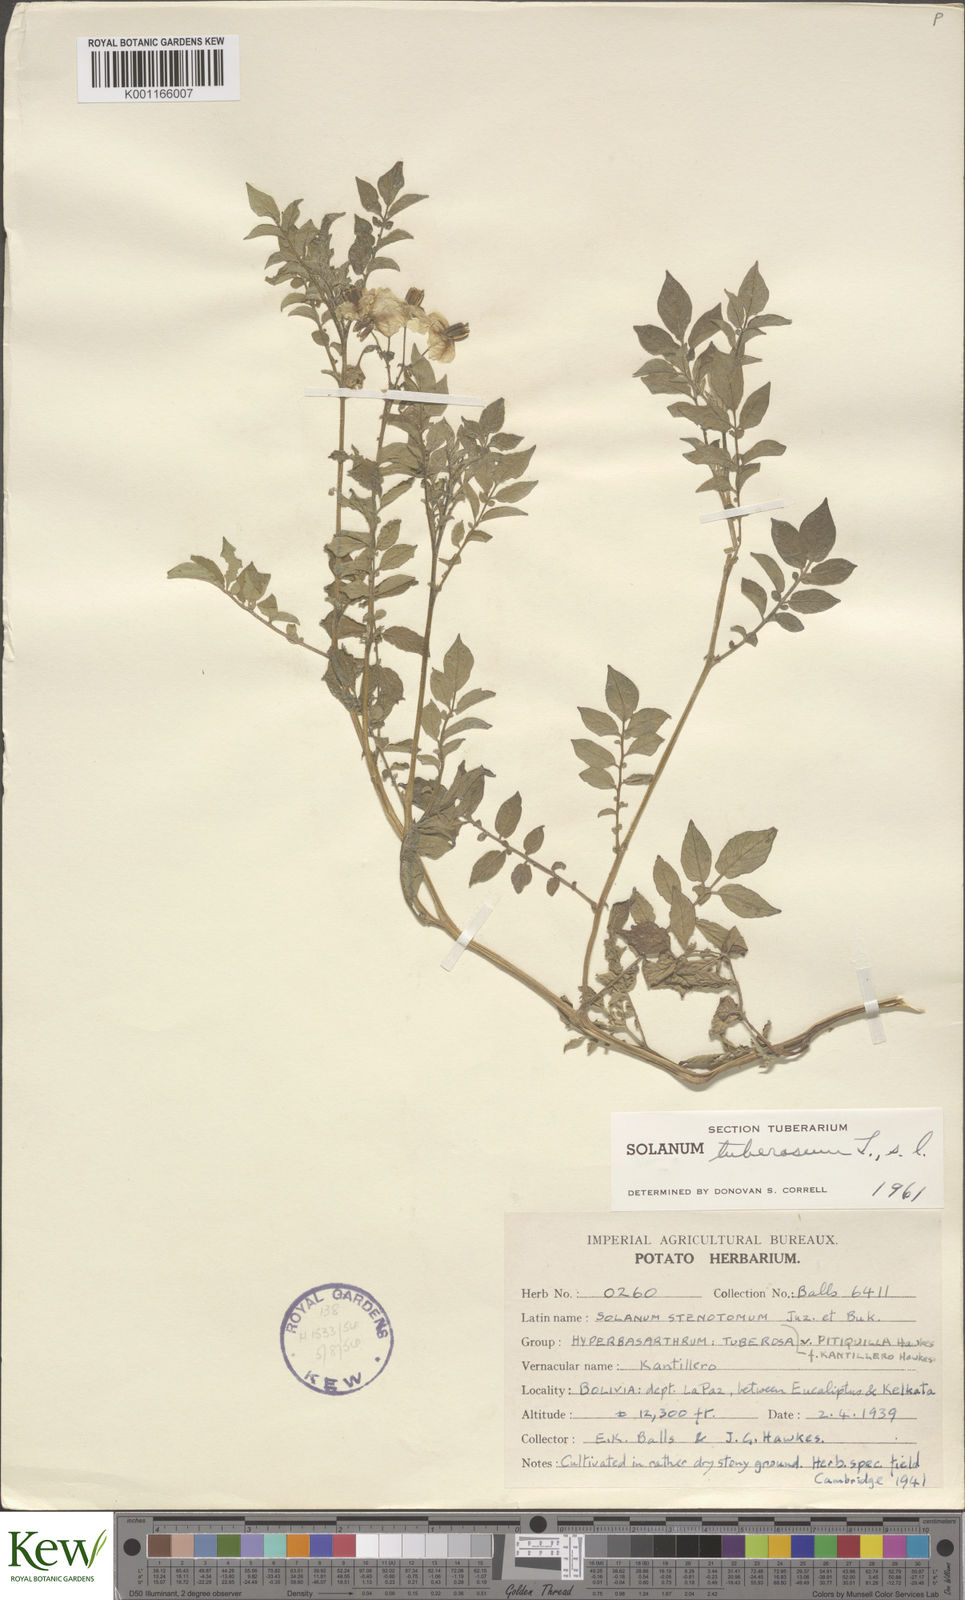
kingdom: Plantae
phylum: Tracheophyta
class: Magnoliopsida
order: Solanales
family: Solanaceae
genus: Solanum
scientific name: Solanum tuberosum
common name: Potato
